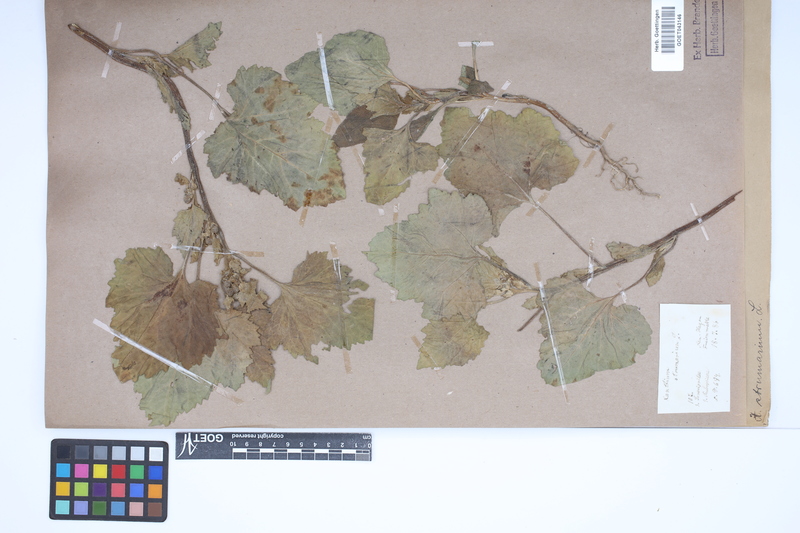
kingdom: Plantae
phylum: Tracheophyta
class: Magnoliopsida
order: Asterales
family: Asteraceae
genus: Xanthium
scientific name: Xanthium strumarium
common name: Rough cocklebur
